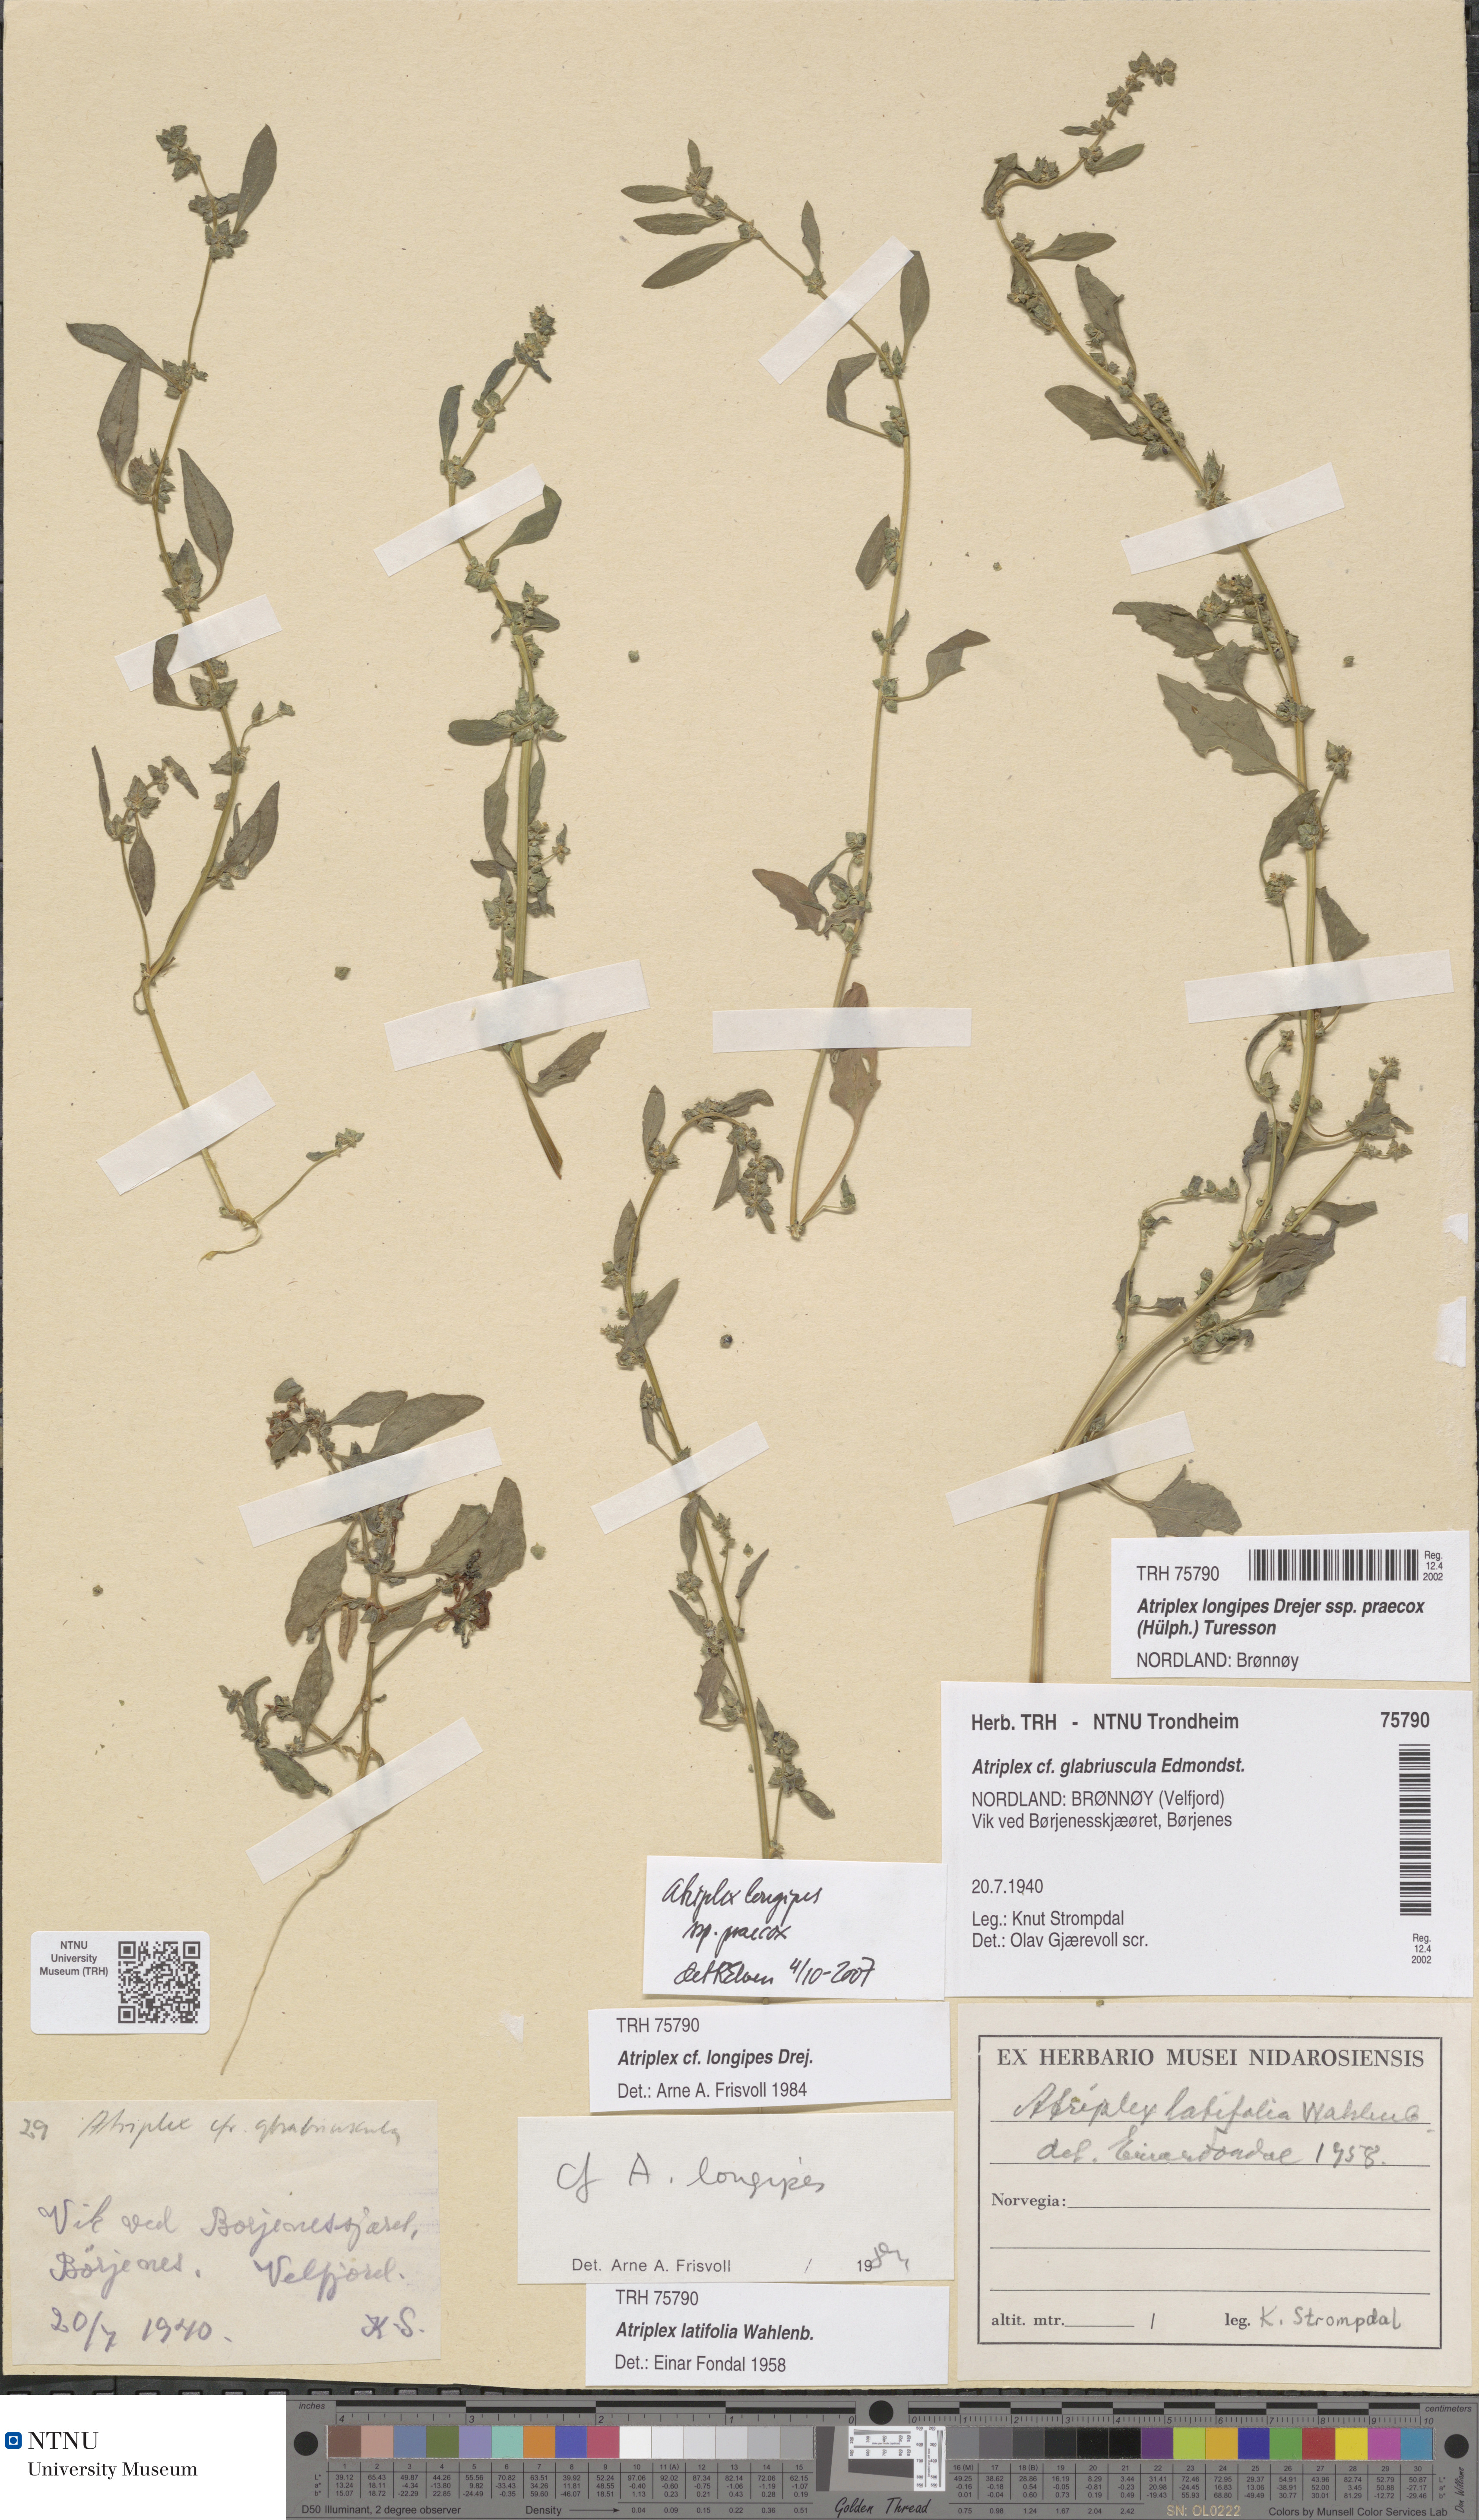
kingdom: Plantae
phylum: Tracheophyta
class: Magnoliopsida
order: Caryophyllales
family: Amaranthaceae
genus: Atriplex
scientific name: Atriplex praecox
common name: Early orache
